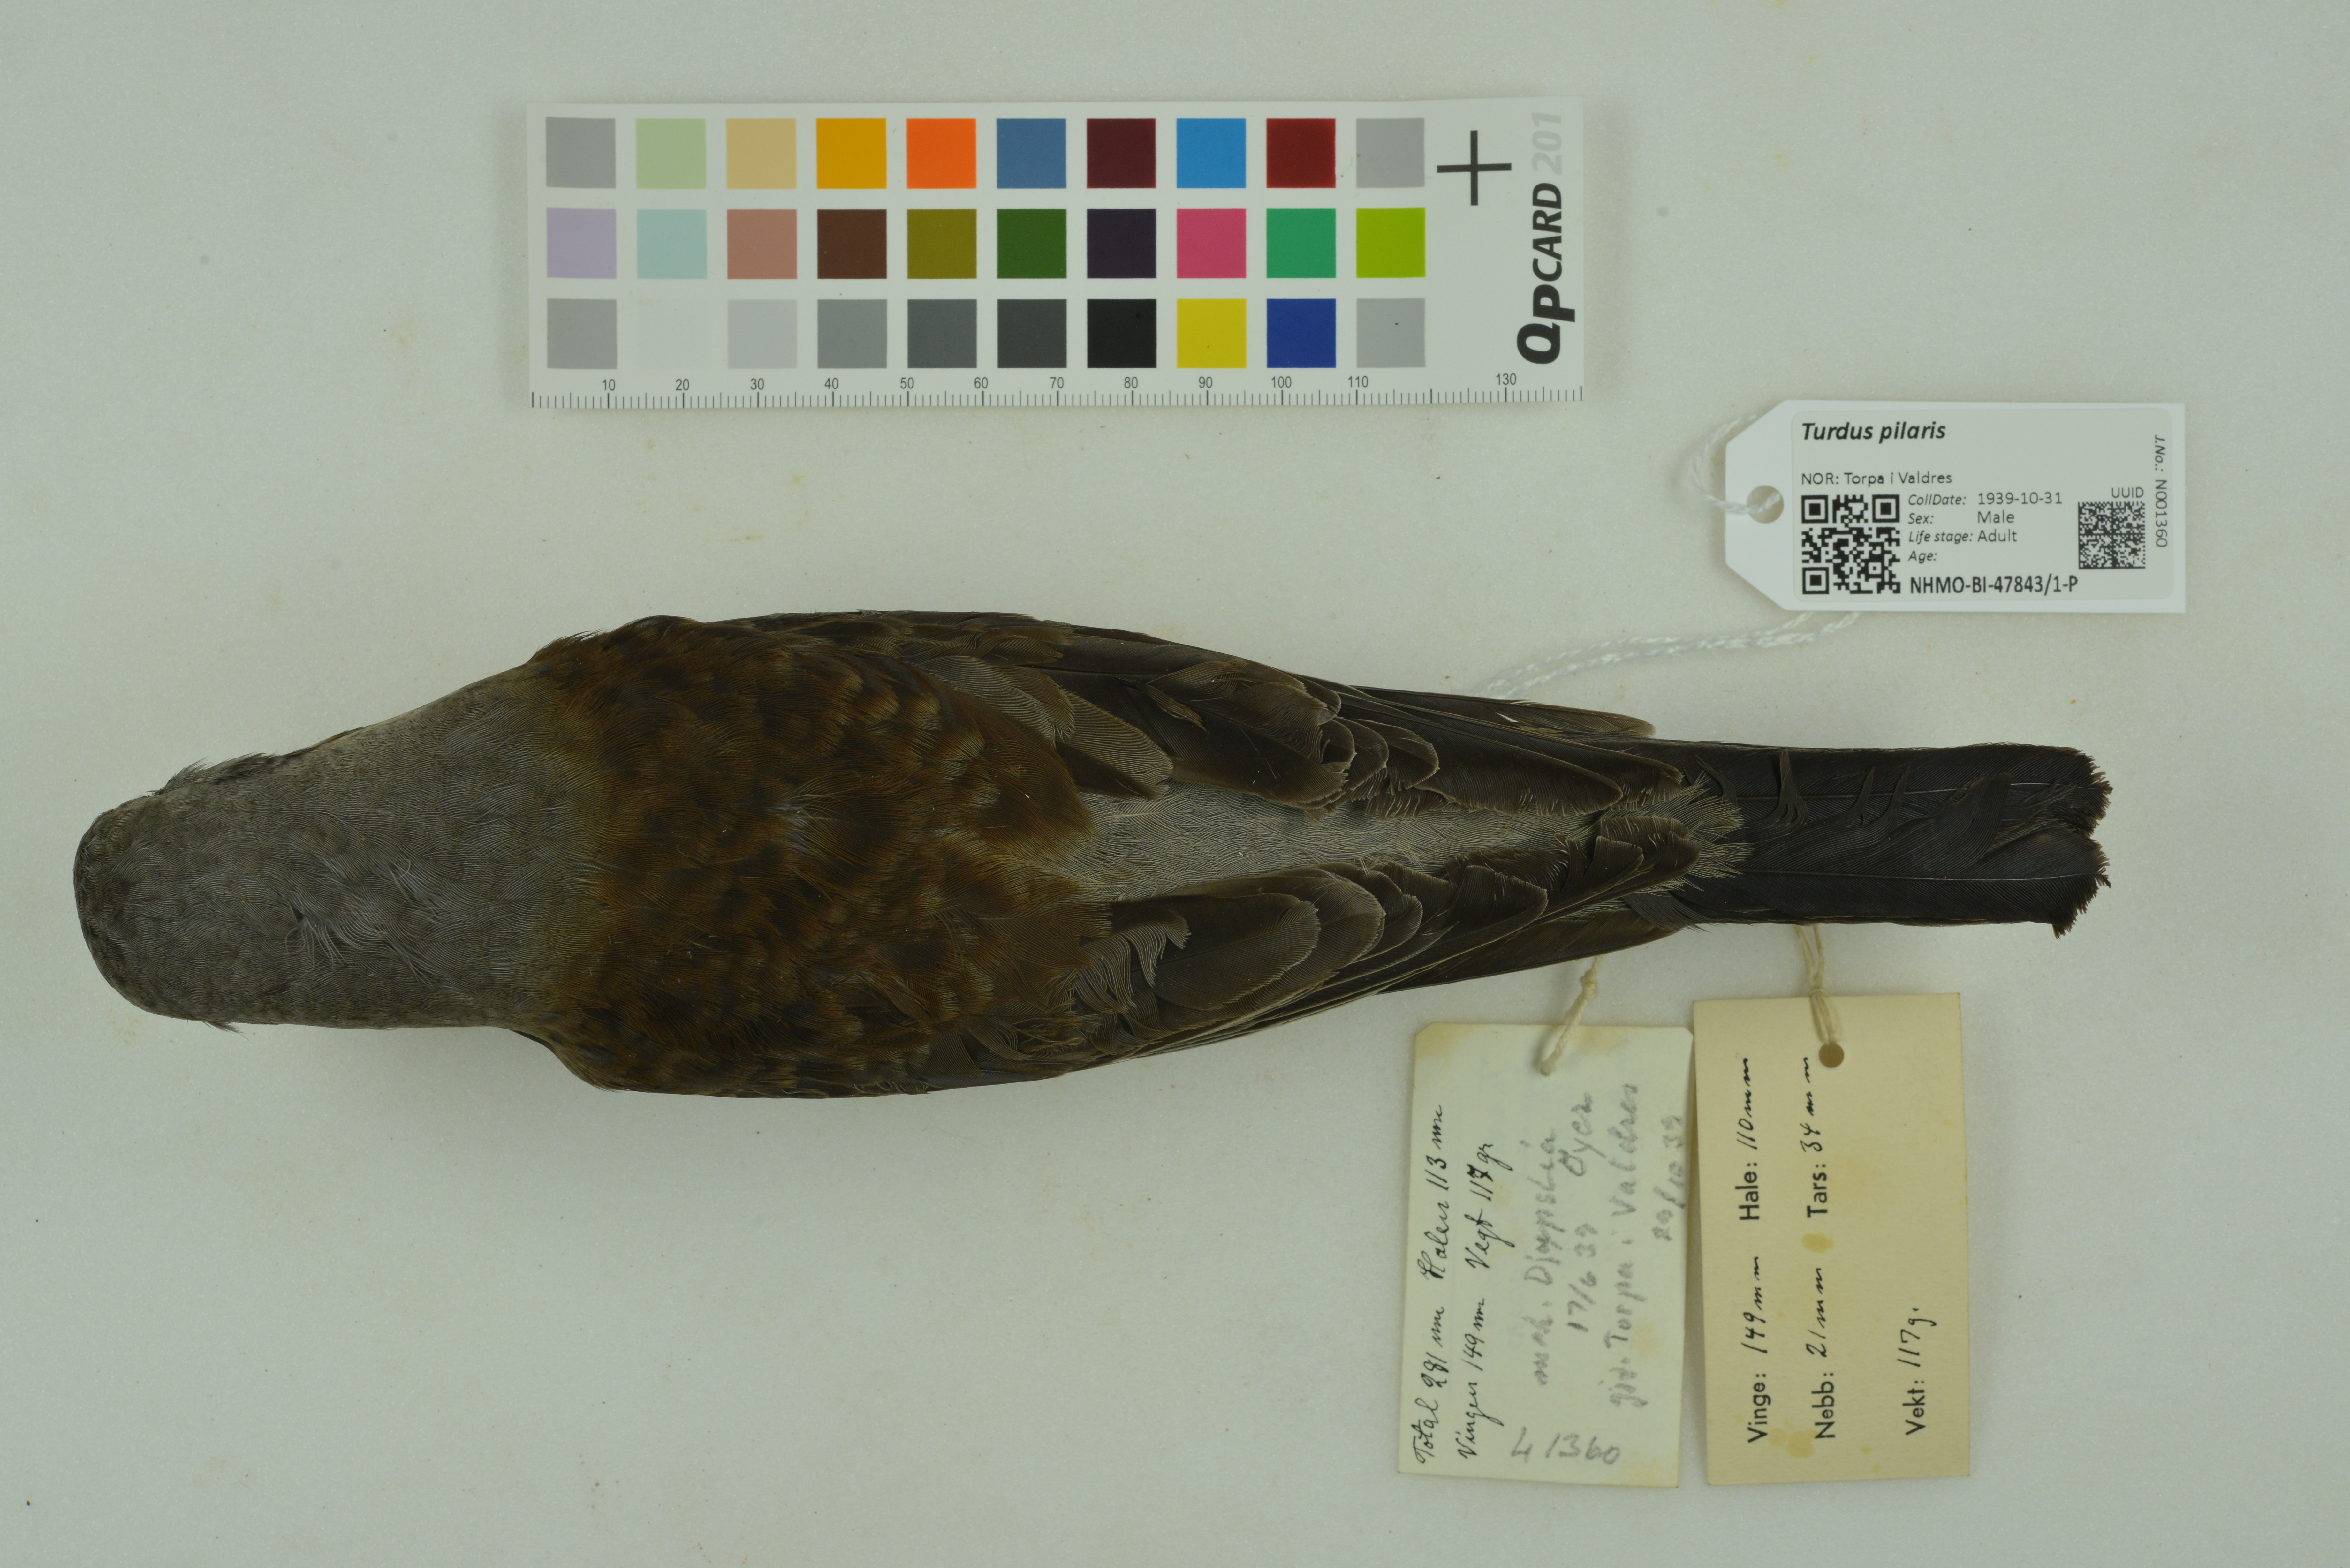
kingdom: Animalia
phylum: Chordata
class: Aves
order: Passeriformes
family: Turdidae
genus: Turdus
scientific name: Turdus pilaris
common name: Fieldfare
